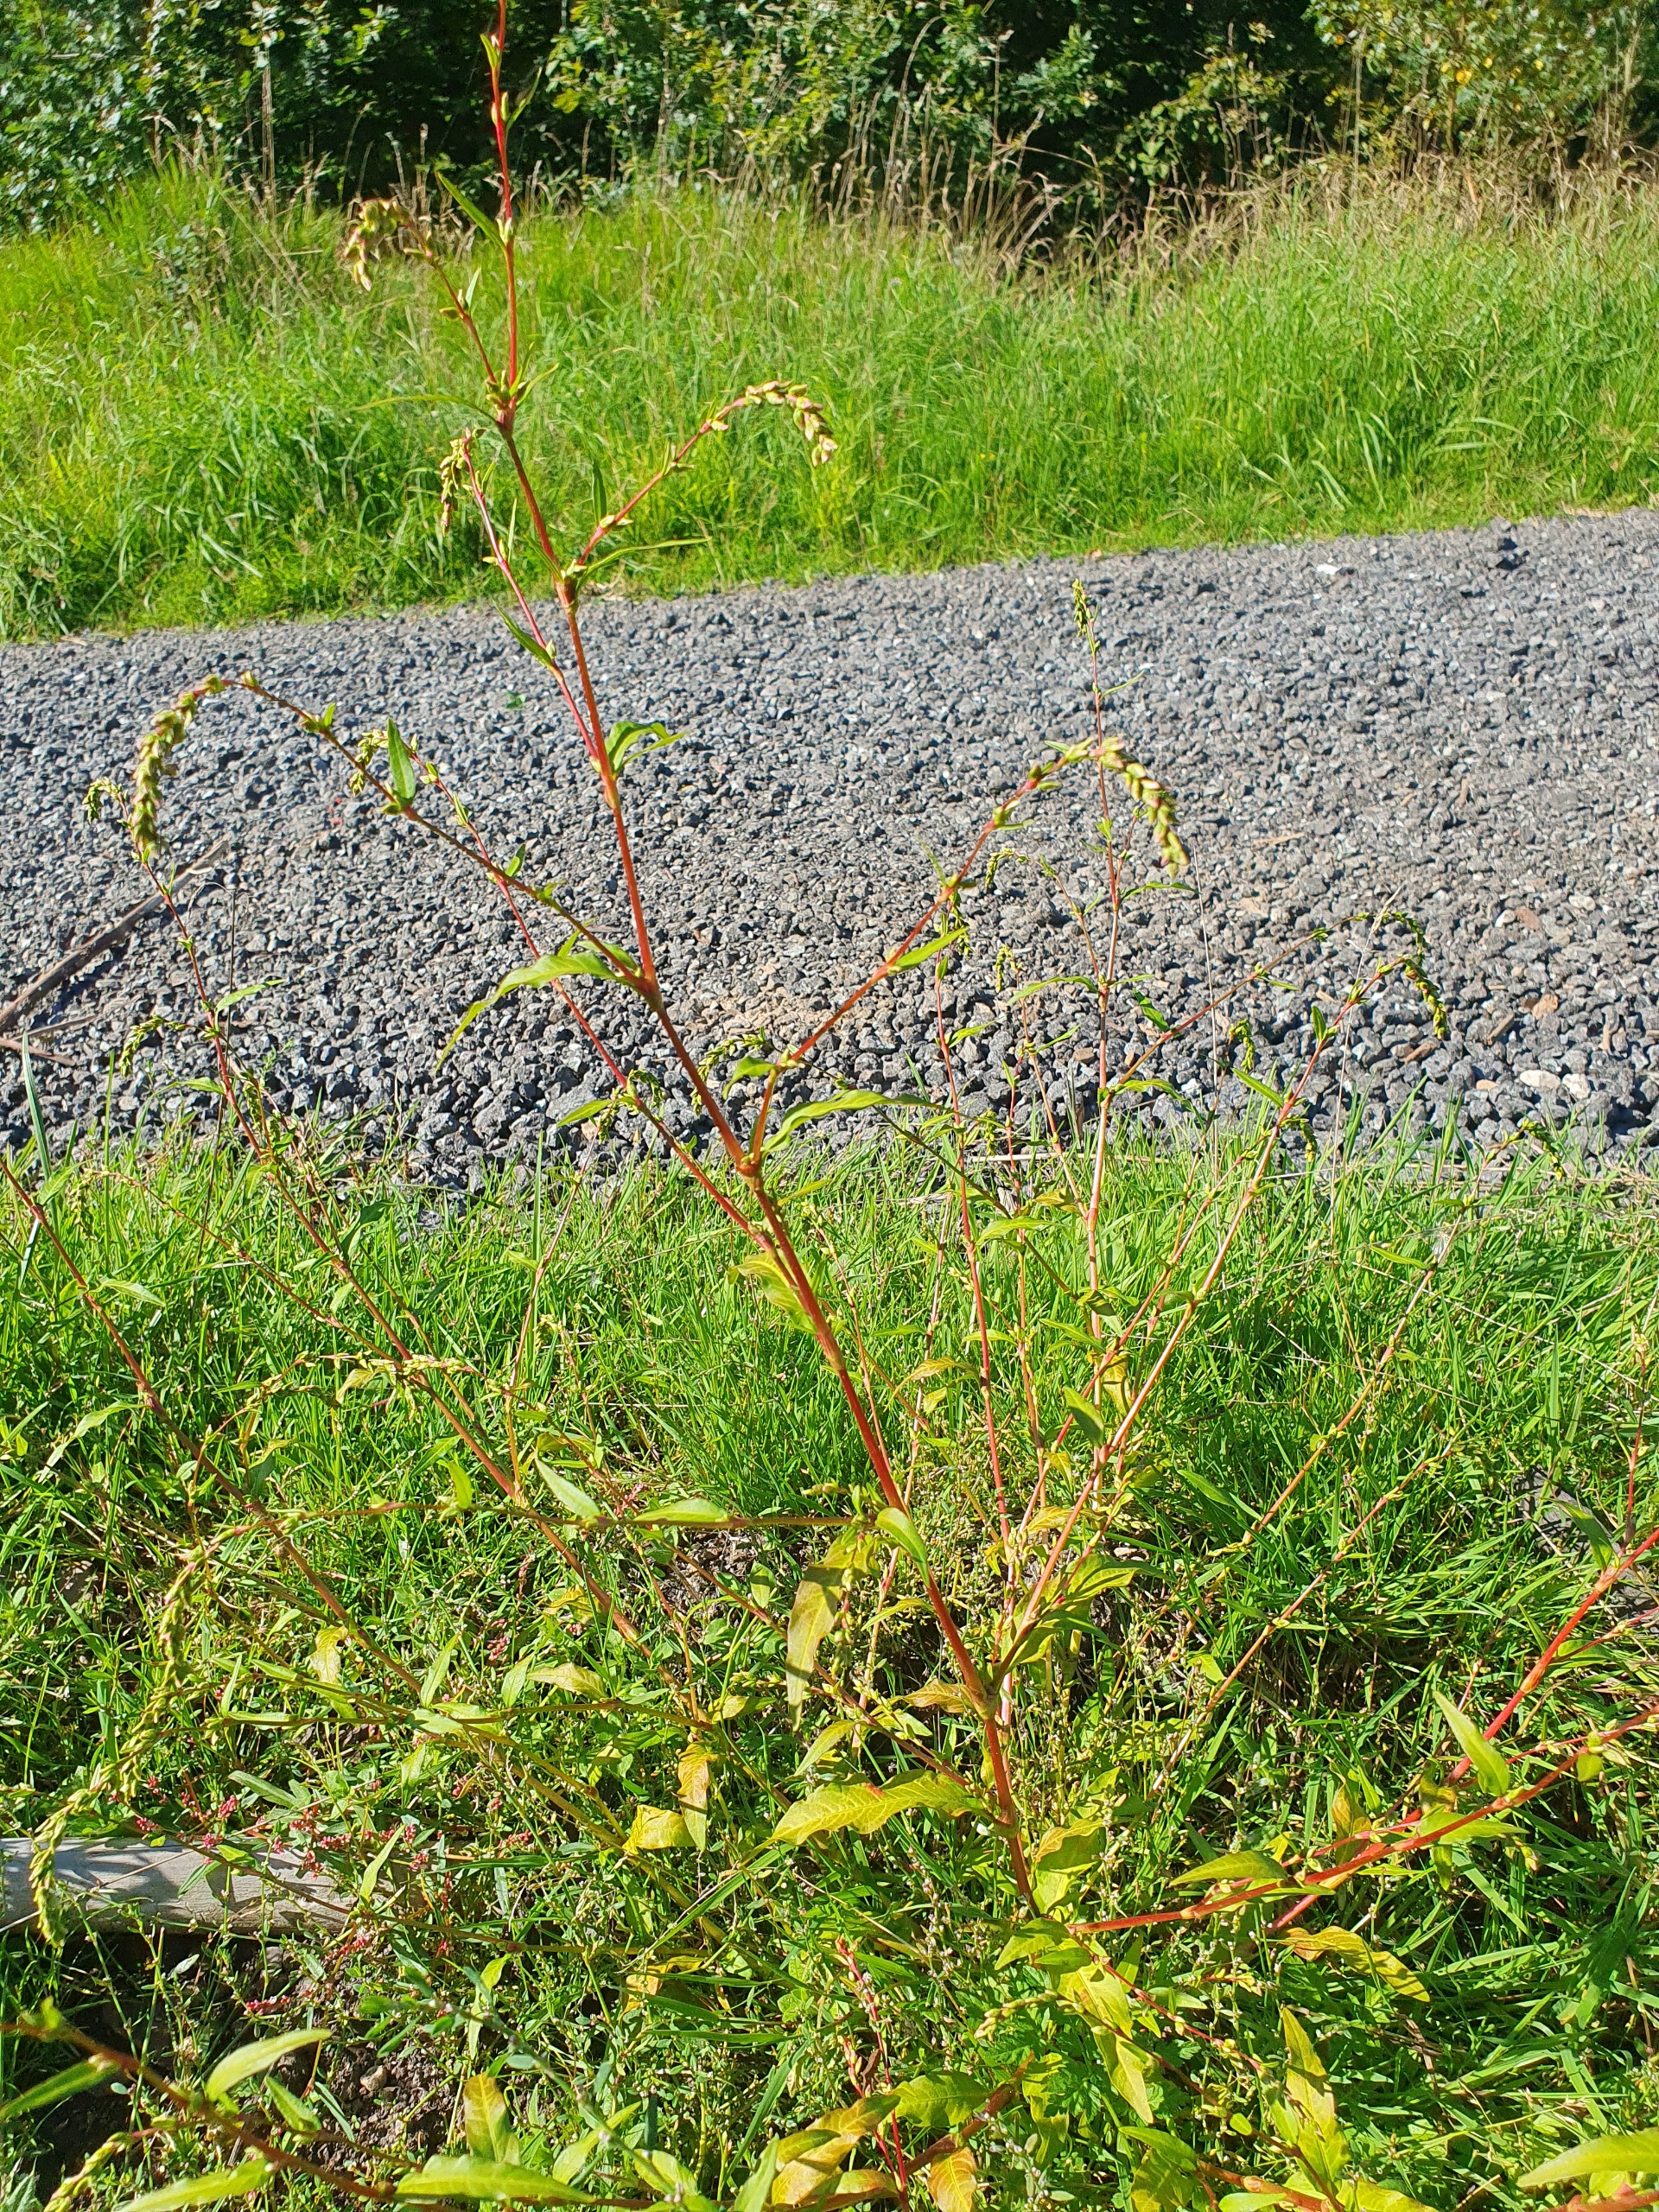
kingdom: Plantae
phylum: Tracheophyta
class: Magnoliopsida
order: Caryophyllales
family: Polygonaceae
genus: Persicaria
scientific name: Persicaria hydropiper
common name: Bidende pileurt
